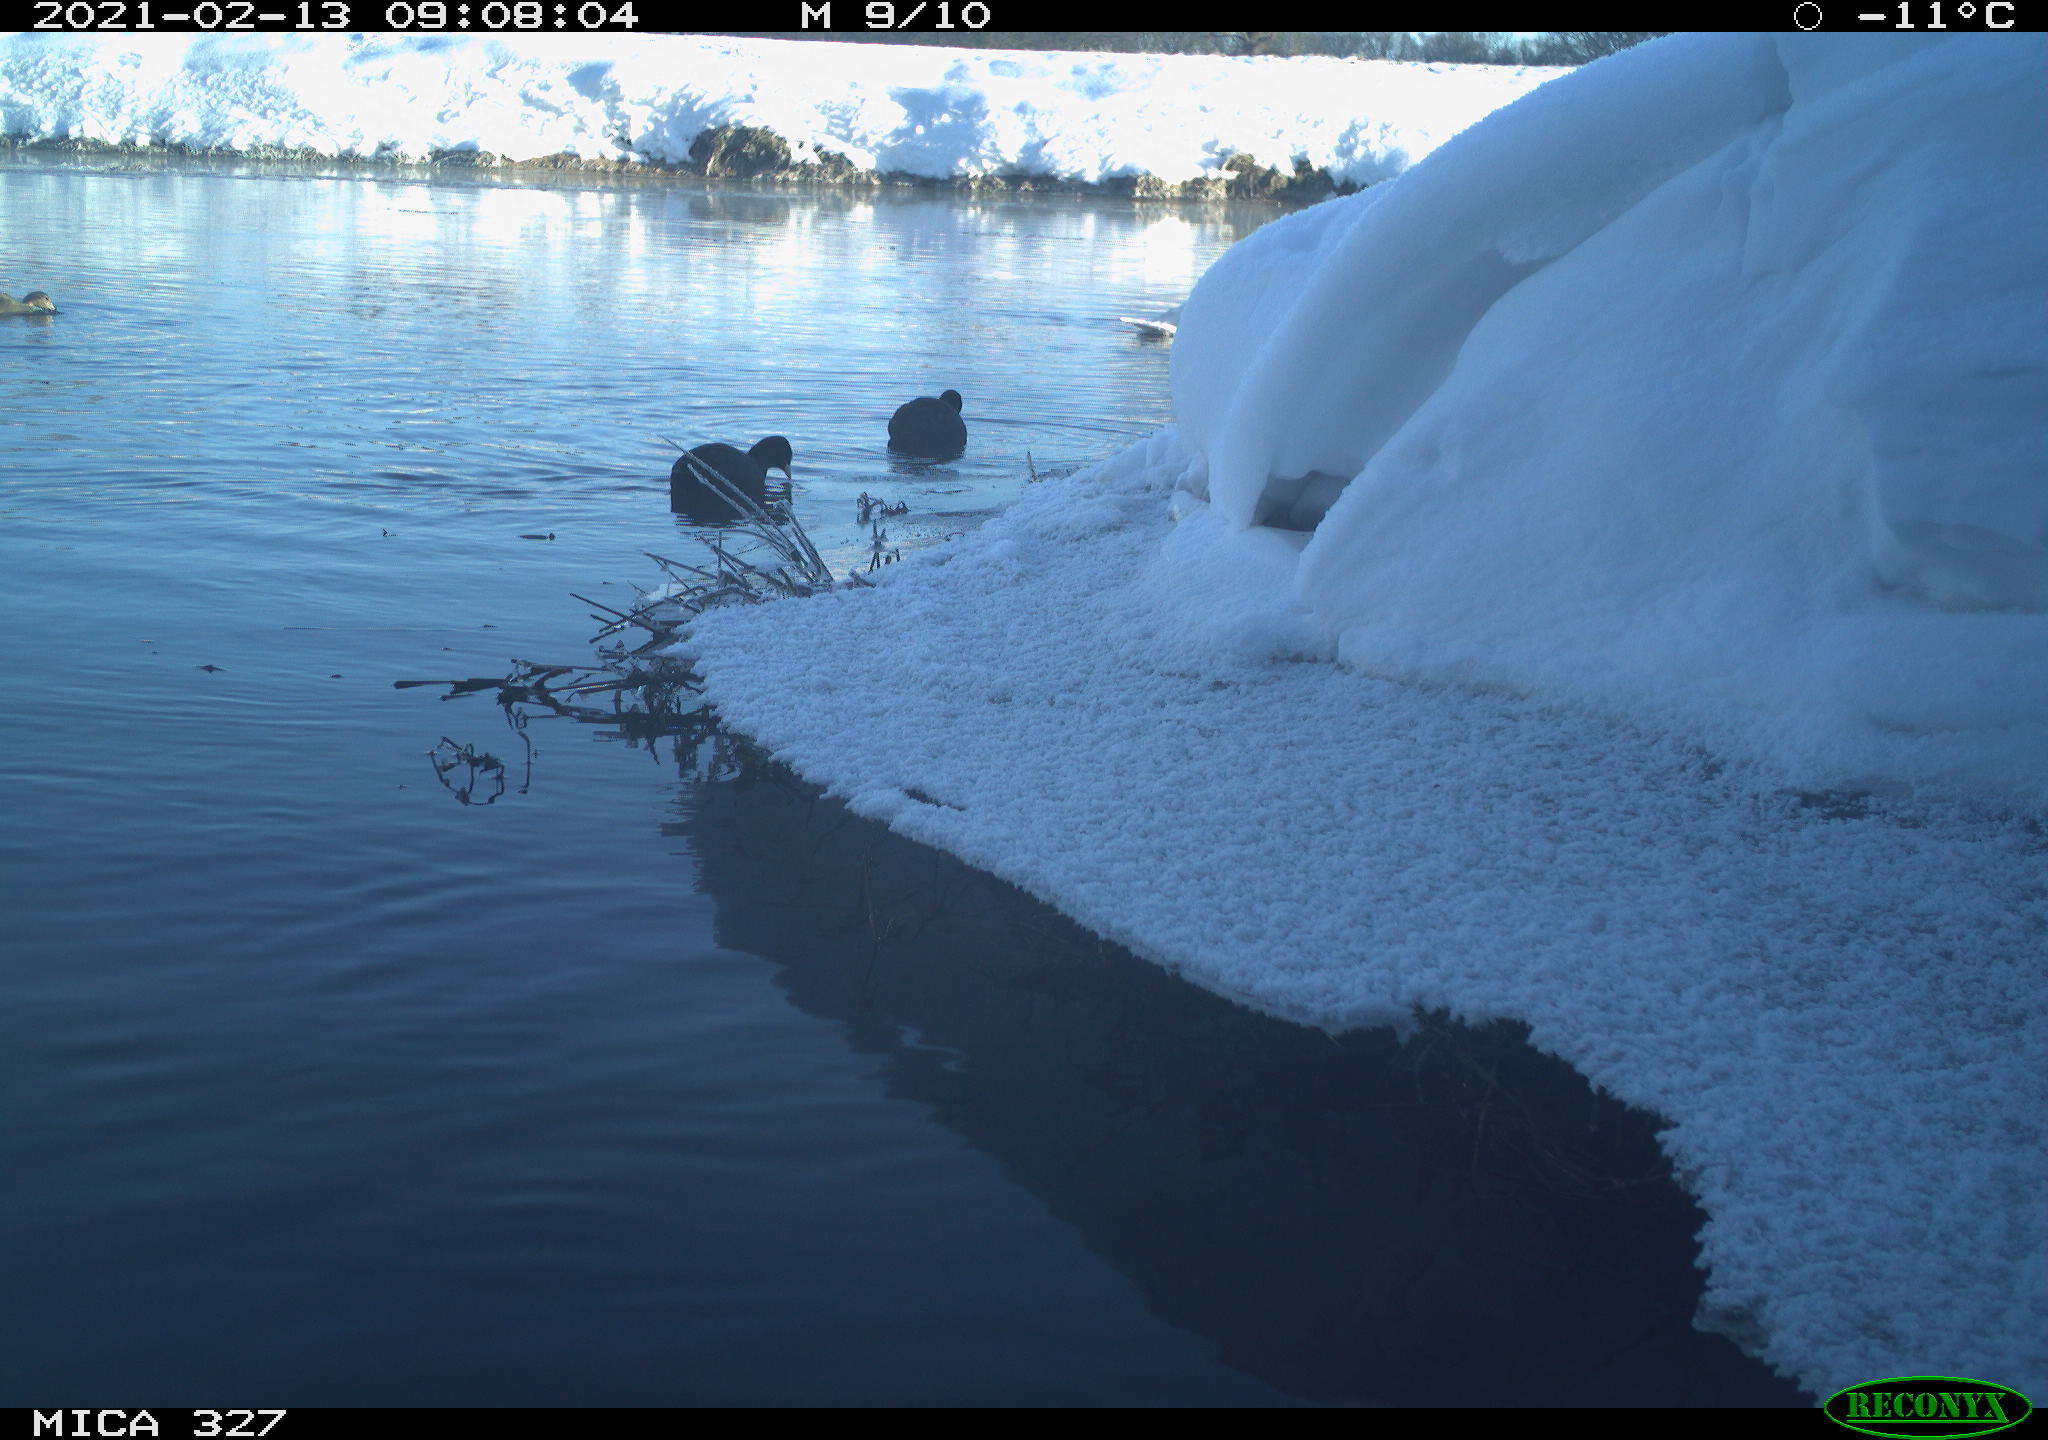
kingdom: Animalia
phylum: Chordata
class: Aves
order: Anseriformes
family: Anatidae
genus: Anas
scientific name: Anas
